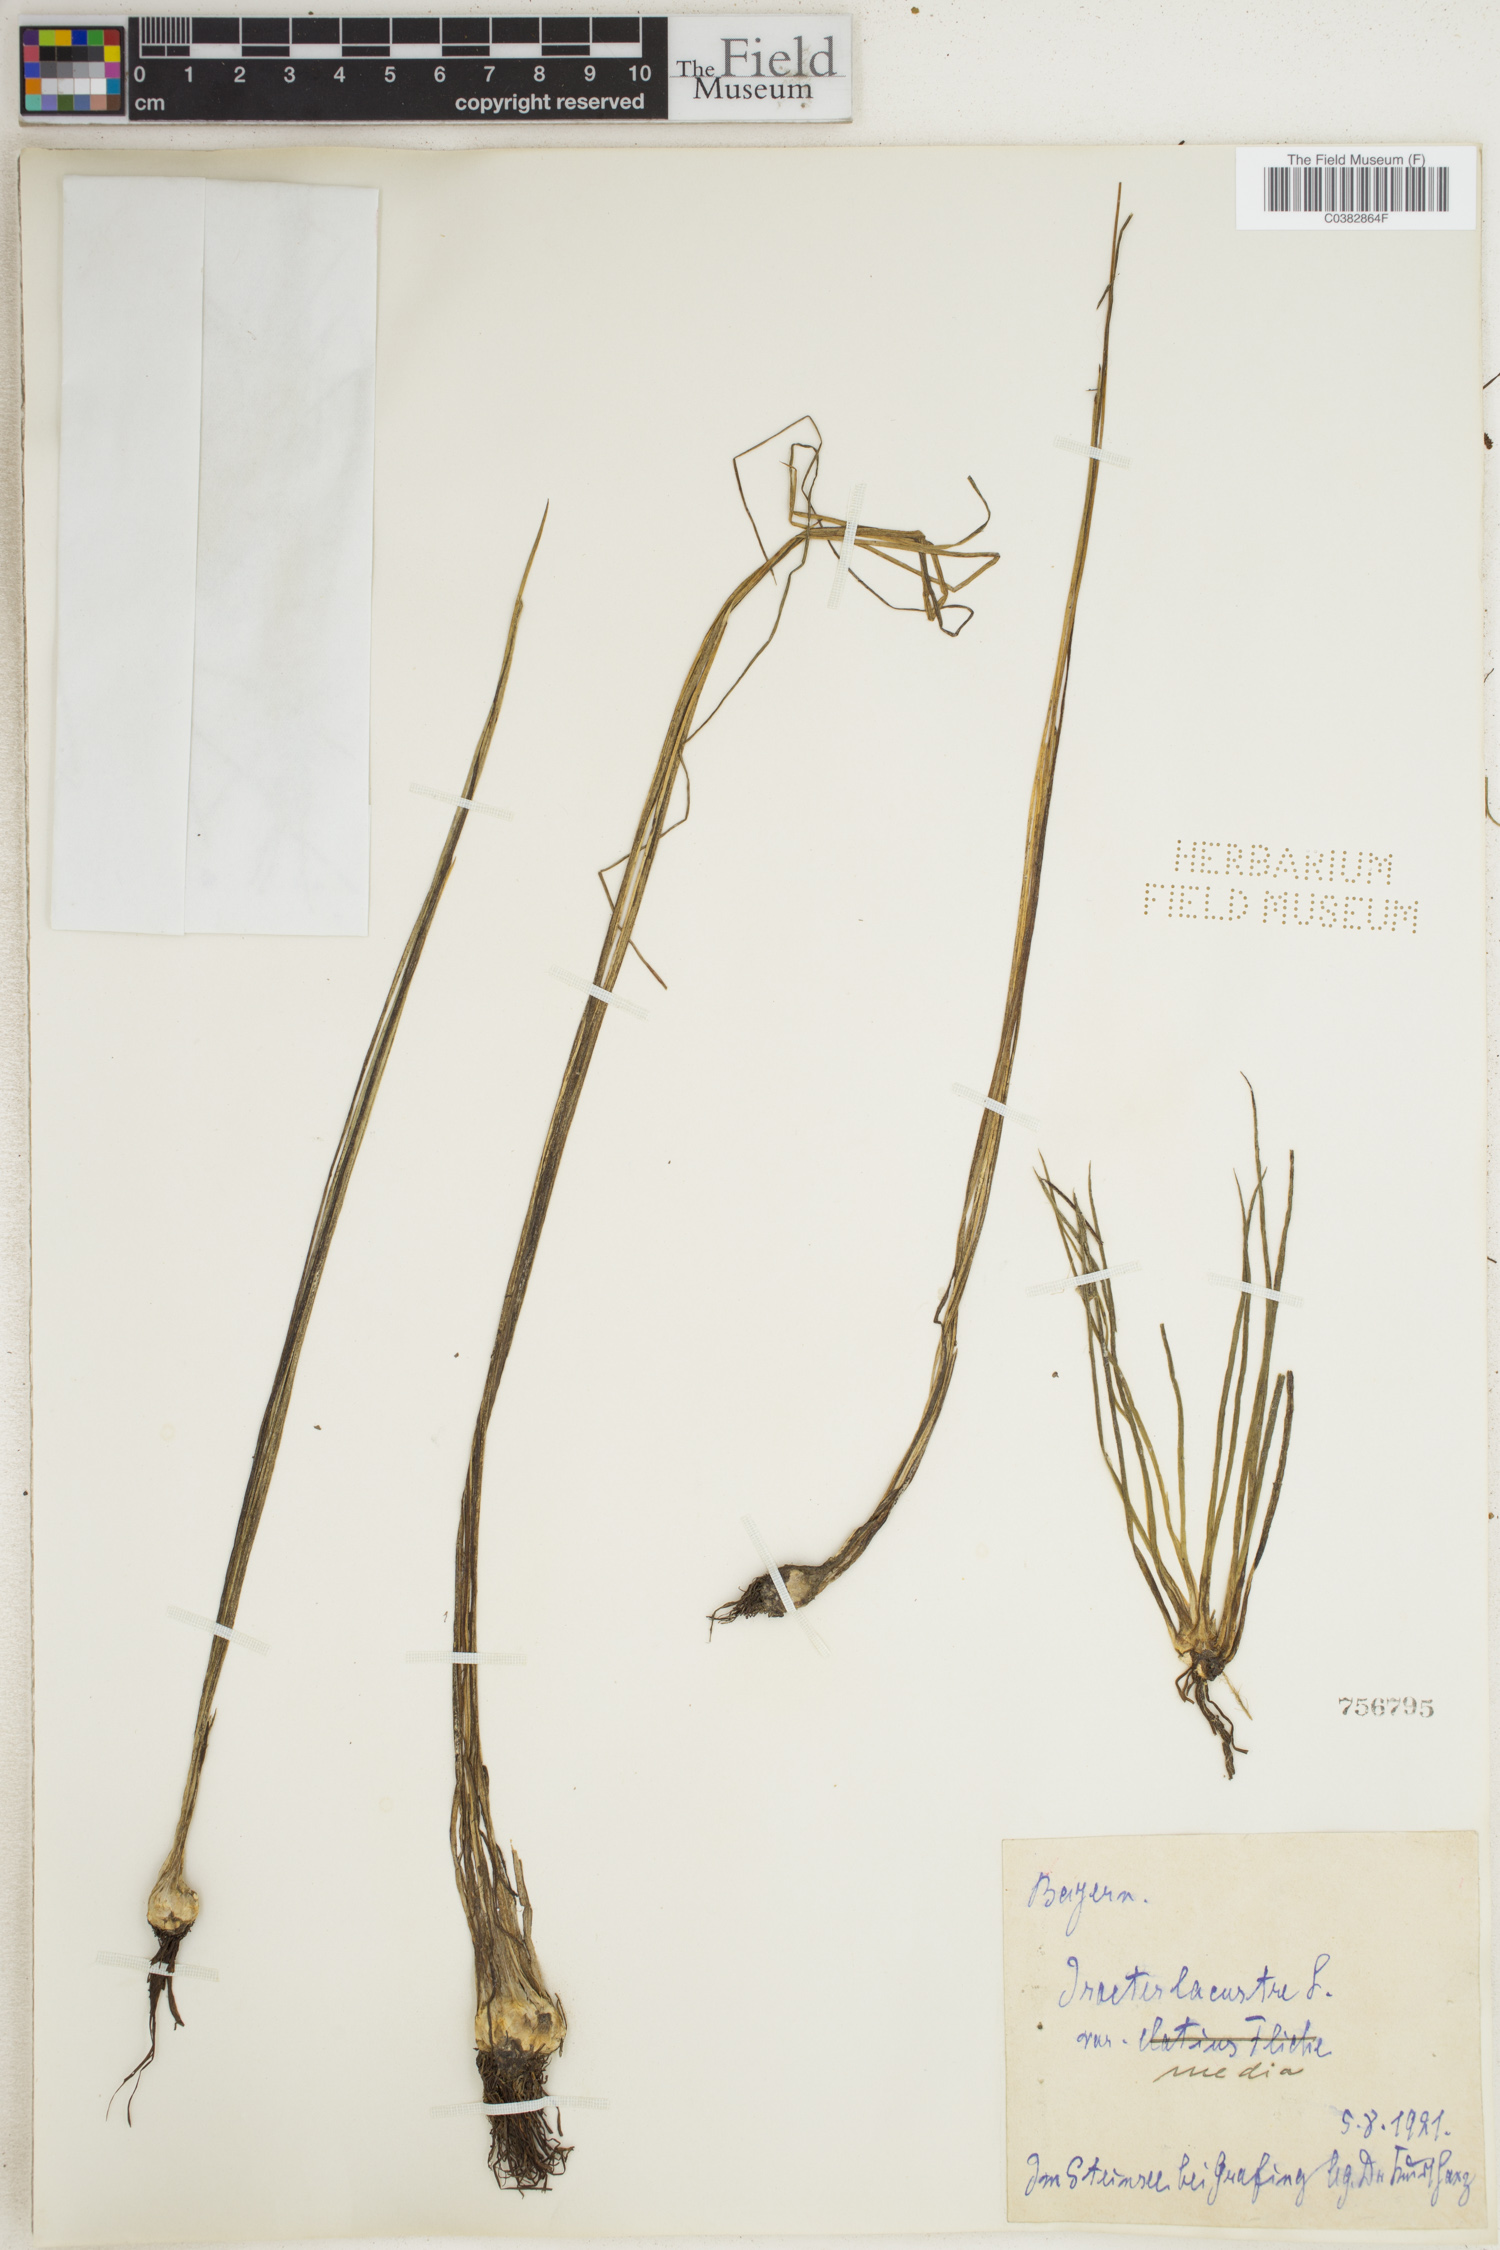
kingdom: Plantae
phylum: Tracheophyta
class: Lycopodiopsida
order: Isoetales
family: Isoetaceae
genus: Isoetes
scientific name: Isoetes lacustris
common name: Common quillwort
